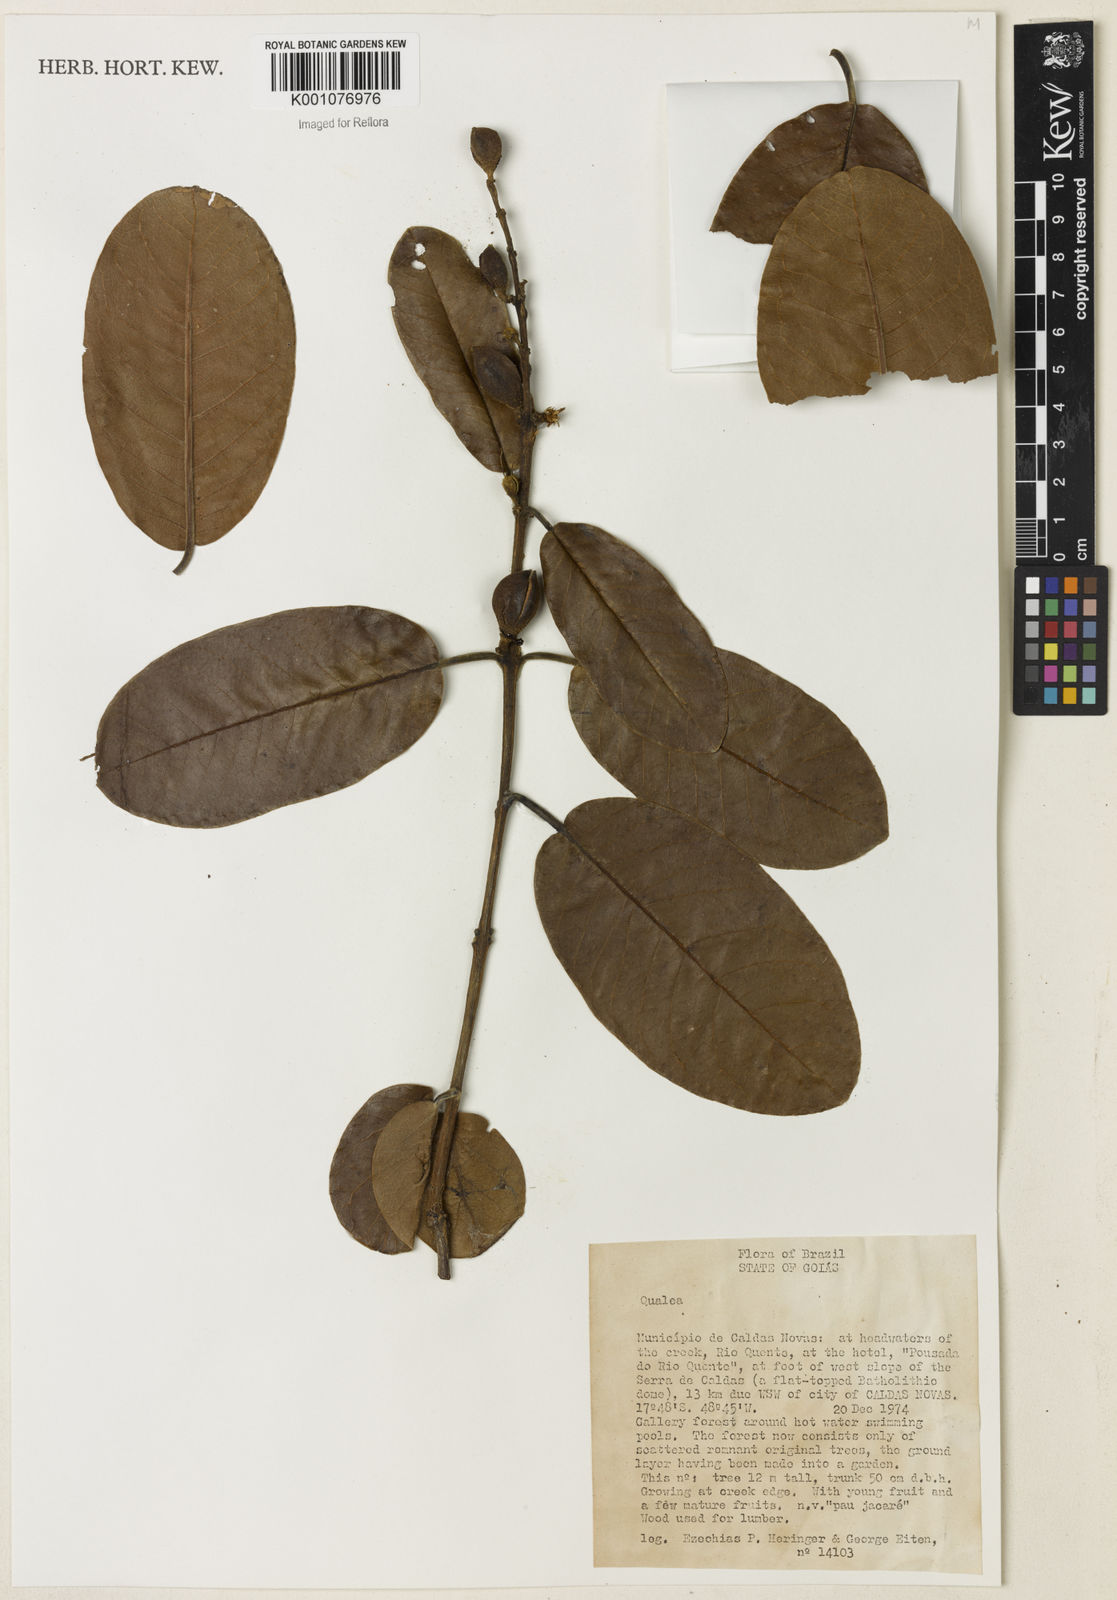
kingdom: Plantae
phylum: Tracheophyta
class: Magnoliopsida
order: Myrtales
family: Vochysiaceae
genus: Qualea
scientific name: Qualea
